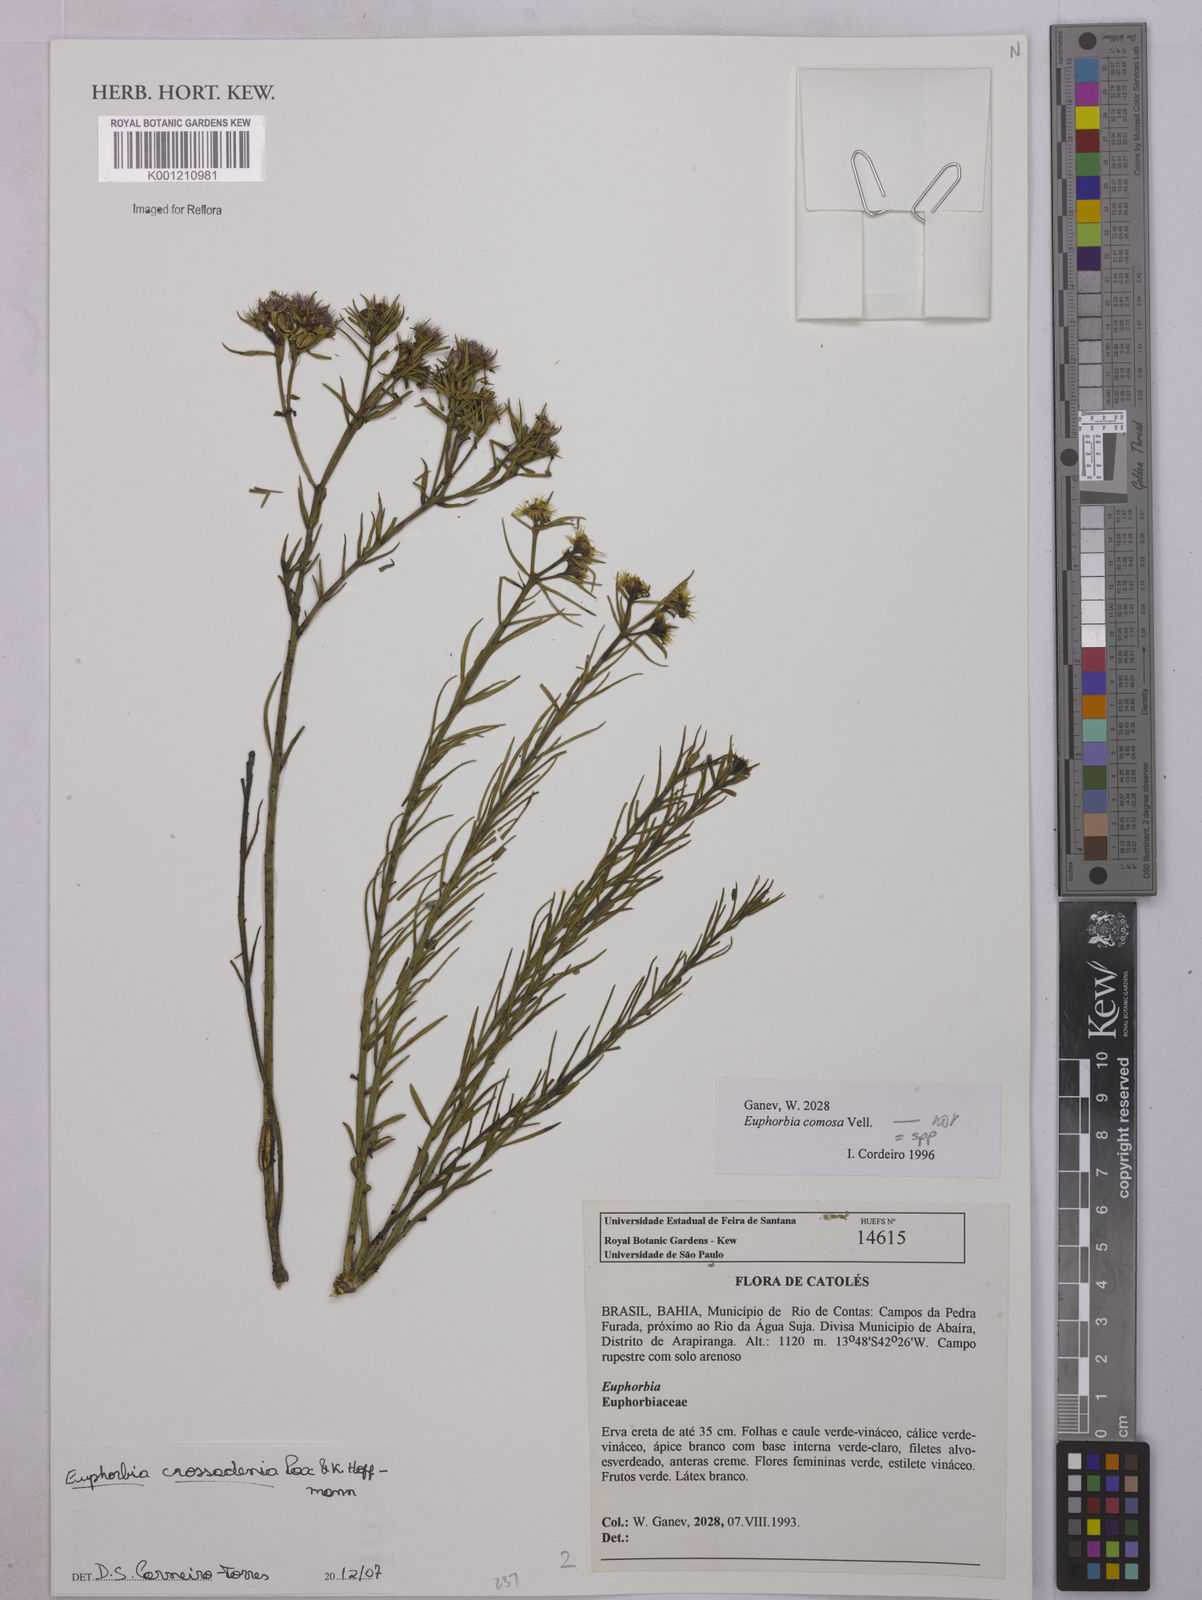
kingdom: Plantae
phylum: Tracheophyta
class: Magnoliopsida
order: Malpighiales
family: Euphorbiaceae
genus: Euphorbia
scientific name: Euphorbia crossadenia
